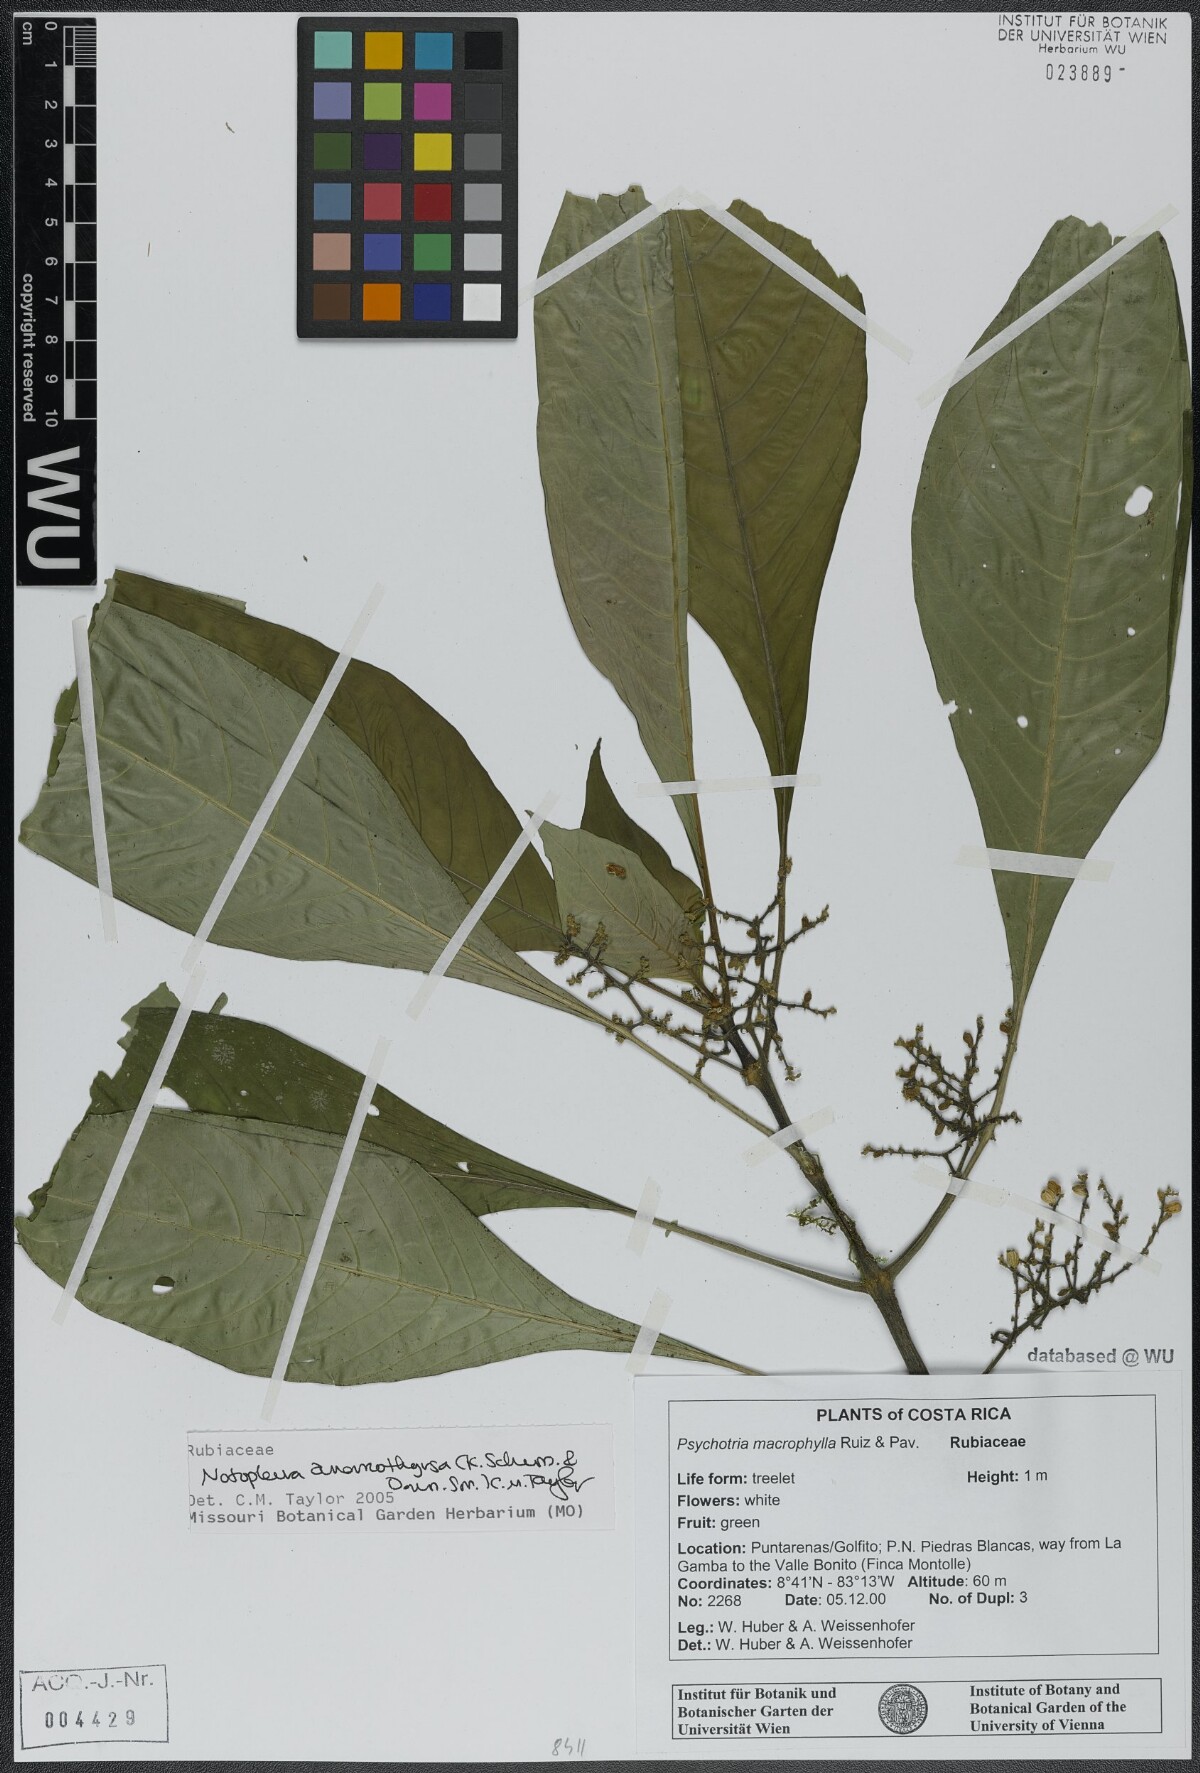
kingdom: Plantae
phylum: Tracheophyta
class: Magnoliopsida
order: Gentianales
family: Rubiaceae
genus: Notopleura
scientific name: Notopleura anomothyrsa
